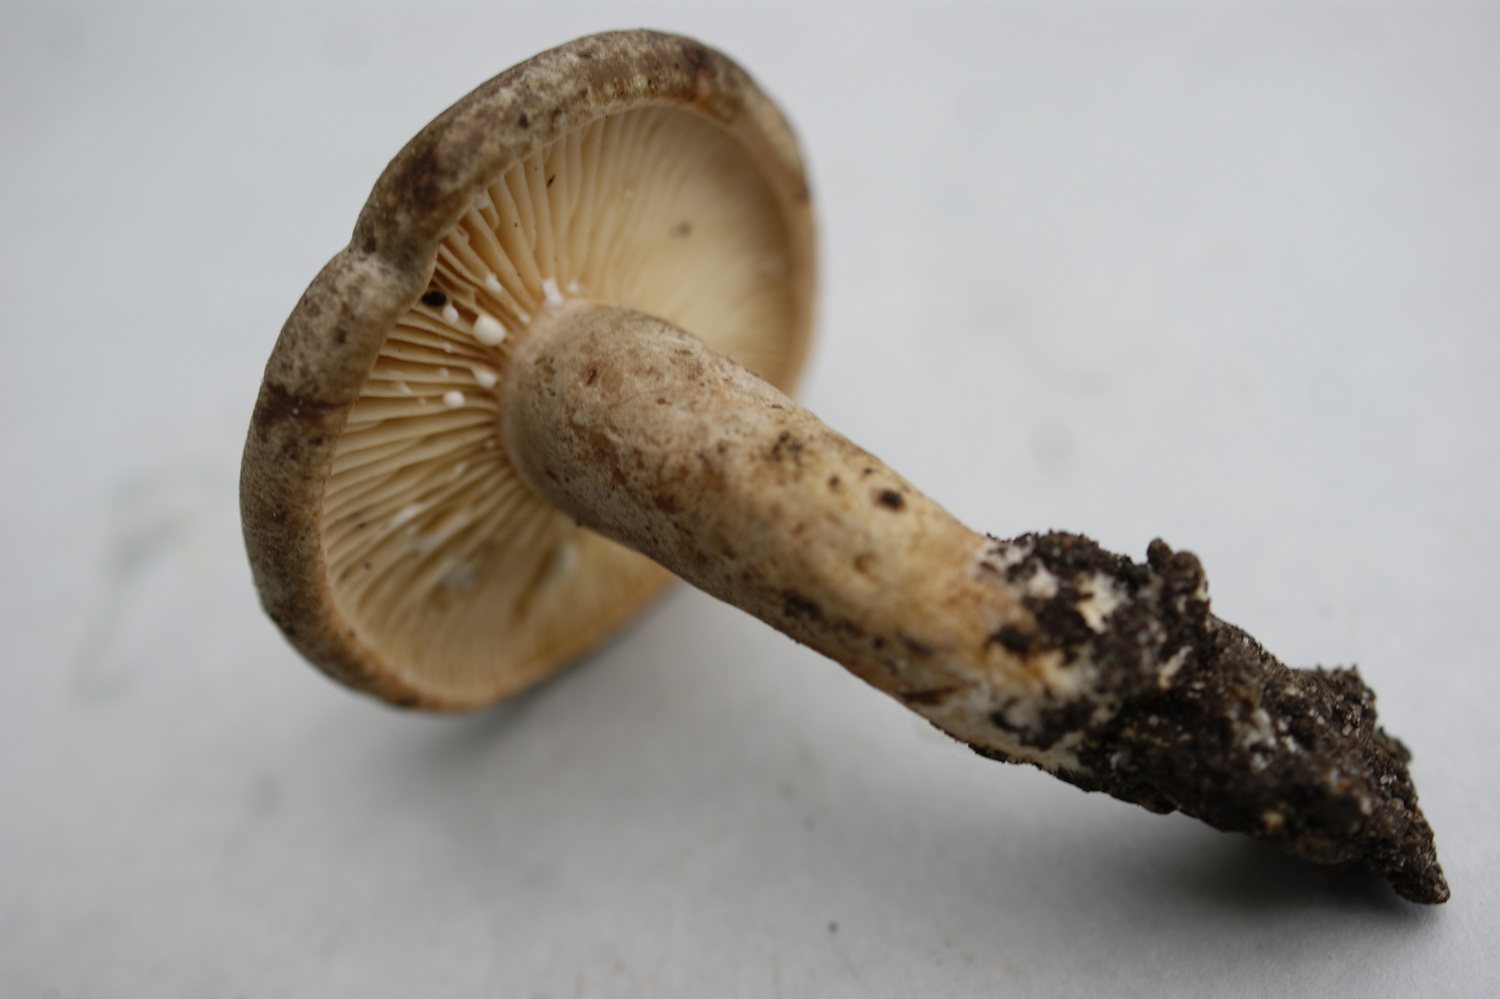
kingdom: Fungi
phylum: Basidiomycota
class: Agaricomycetes
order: Russulales
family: Russulaceae
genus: Lactarius
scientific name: Lactarius pyrogalus
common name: hassel-mælkehat
